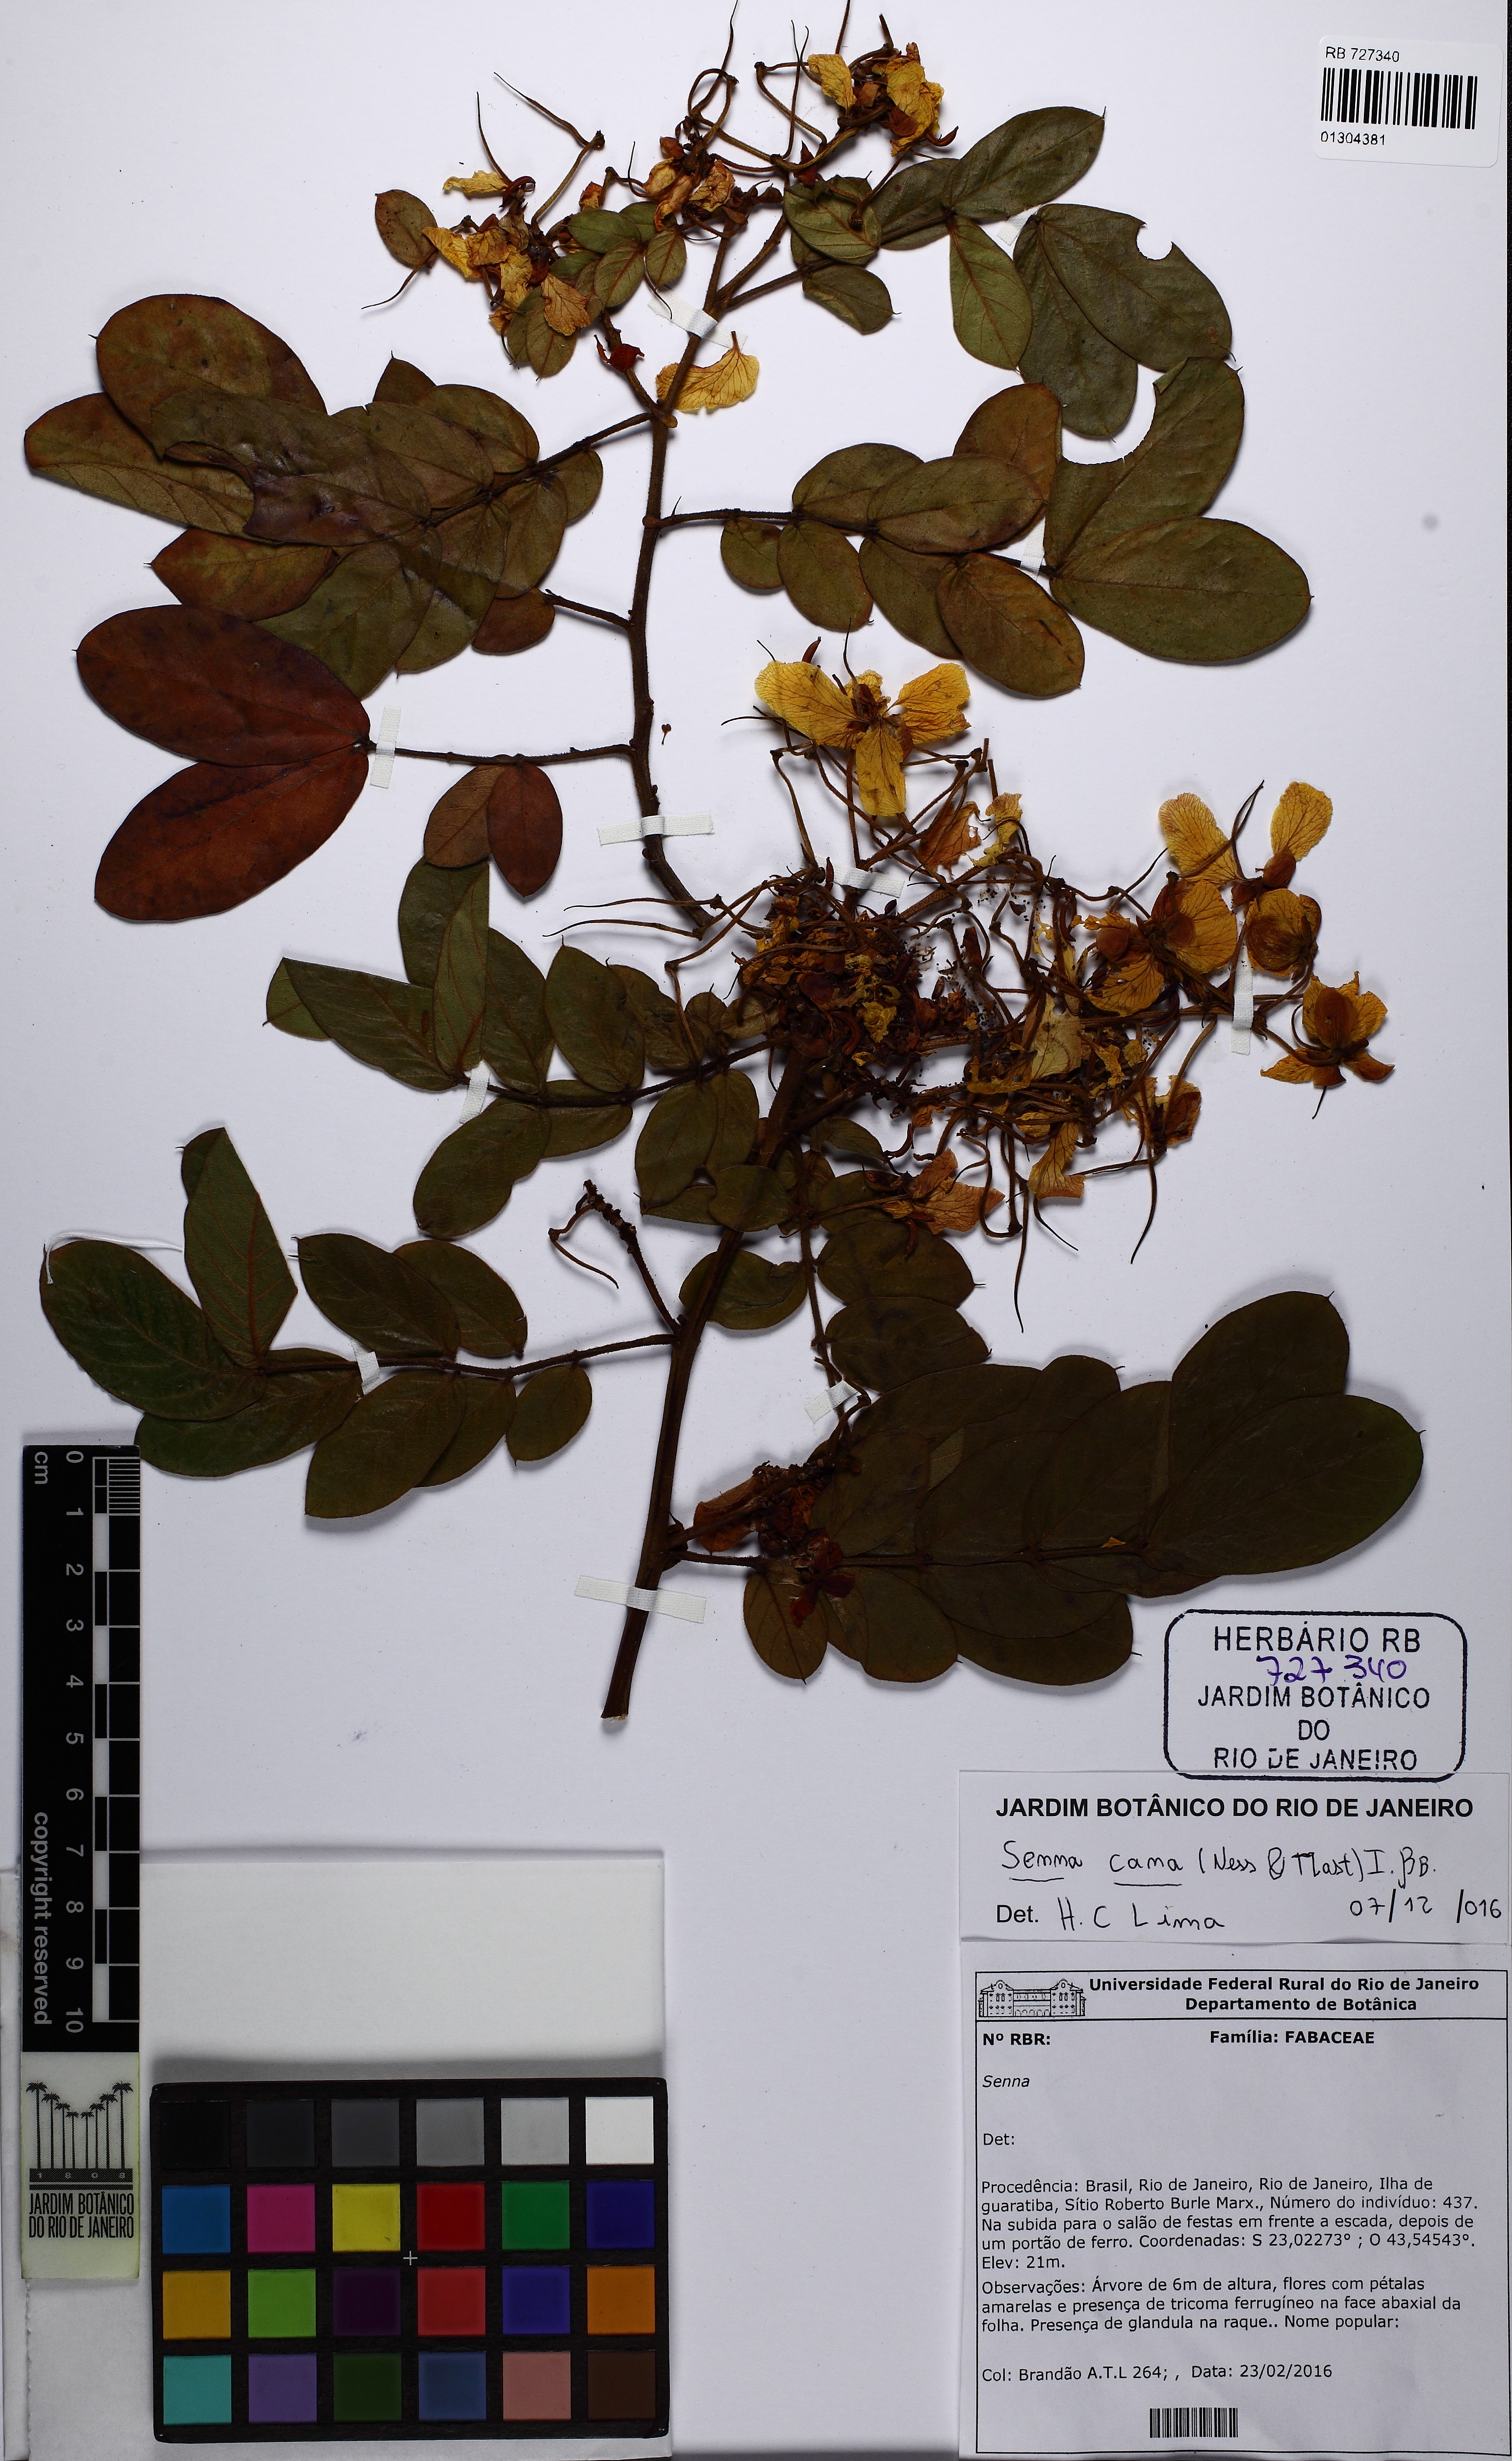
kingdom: Plantae
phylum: Tracheophyta
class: Magnoliopsida
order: Fabales
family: Fabaceae
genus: Senna
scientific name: Senna cana
